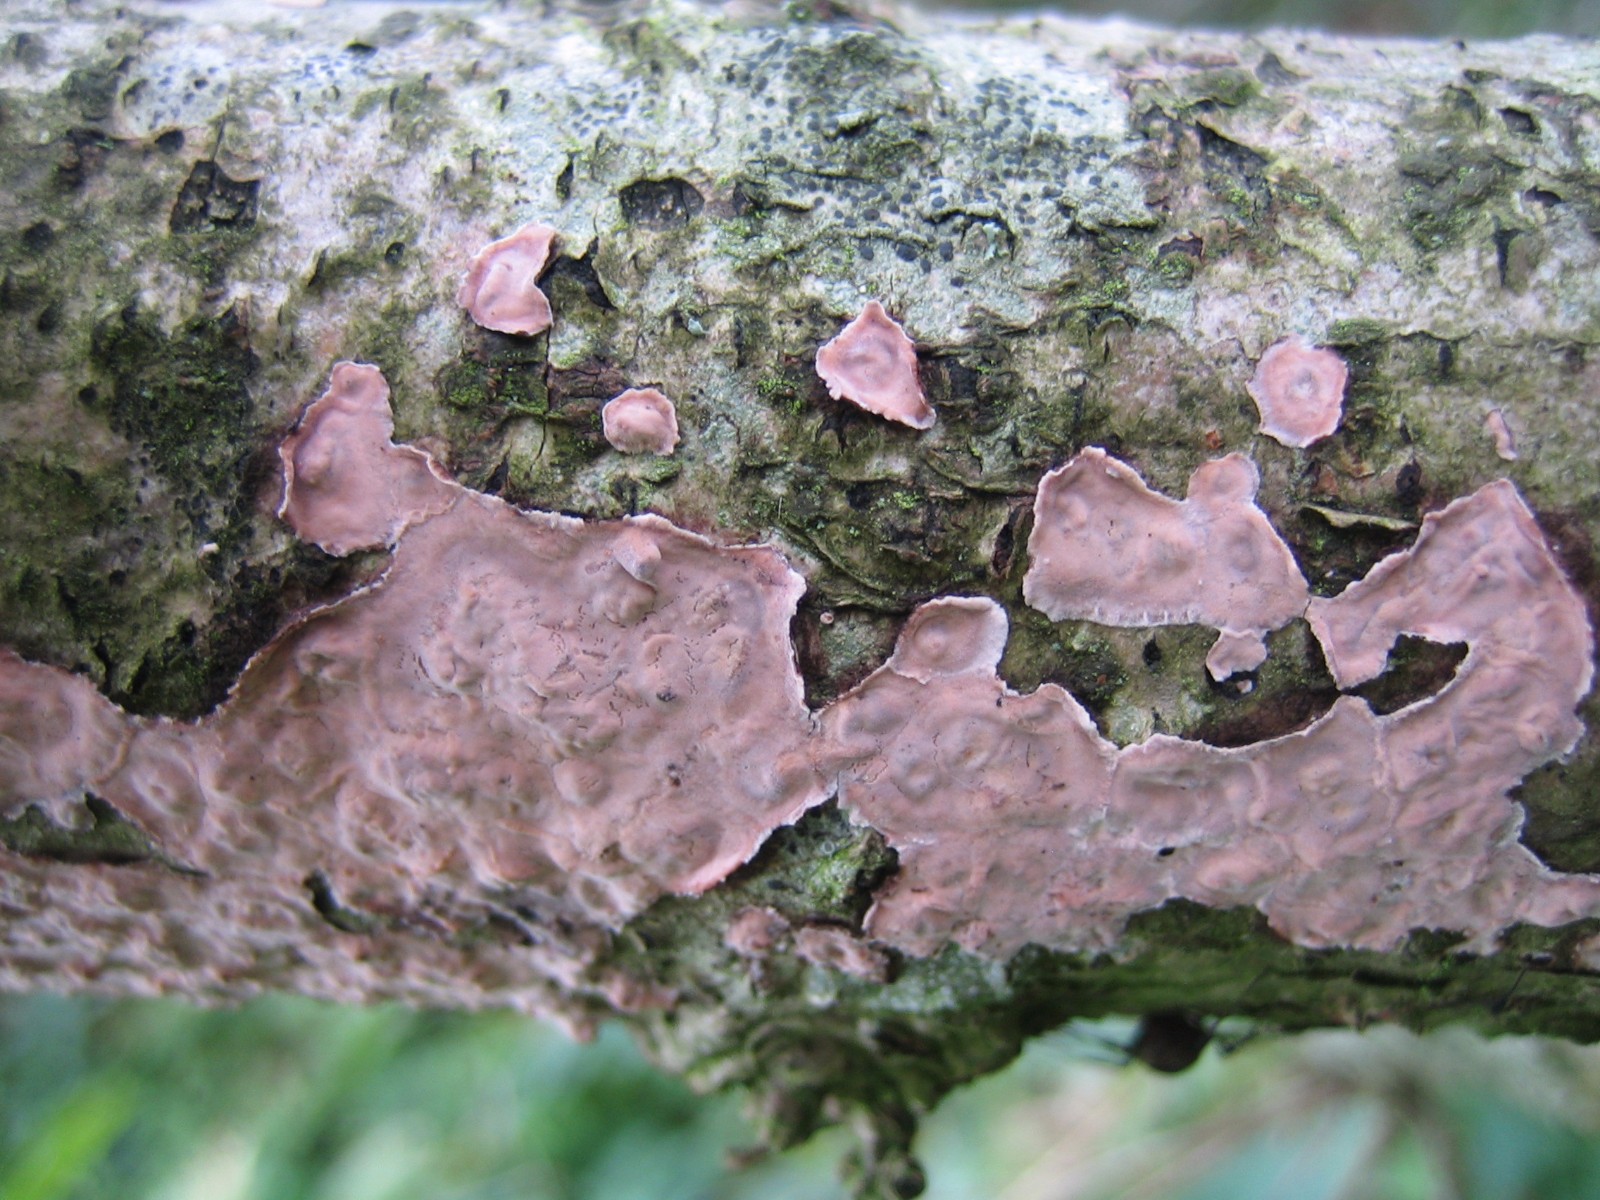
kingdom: Fungi
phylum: Basidiomycota
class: Agaricomycetes
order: Russulales
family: Peniophoraceae
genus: Peniophora
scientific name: Peniophora quercina
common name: ege-voksskind
